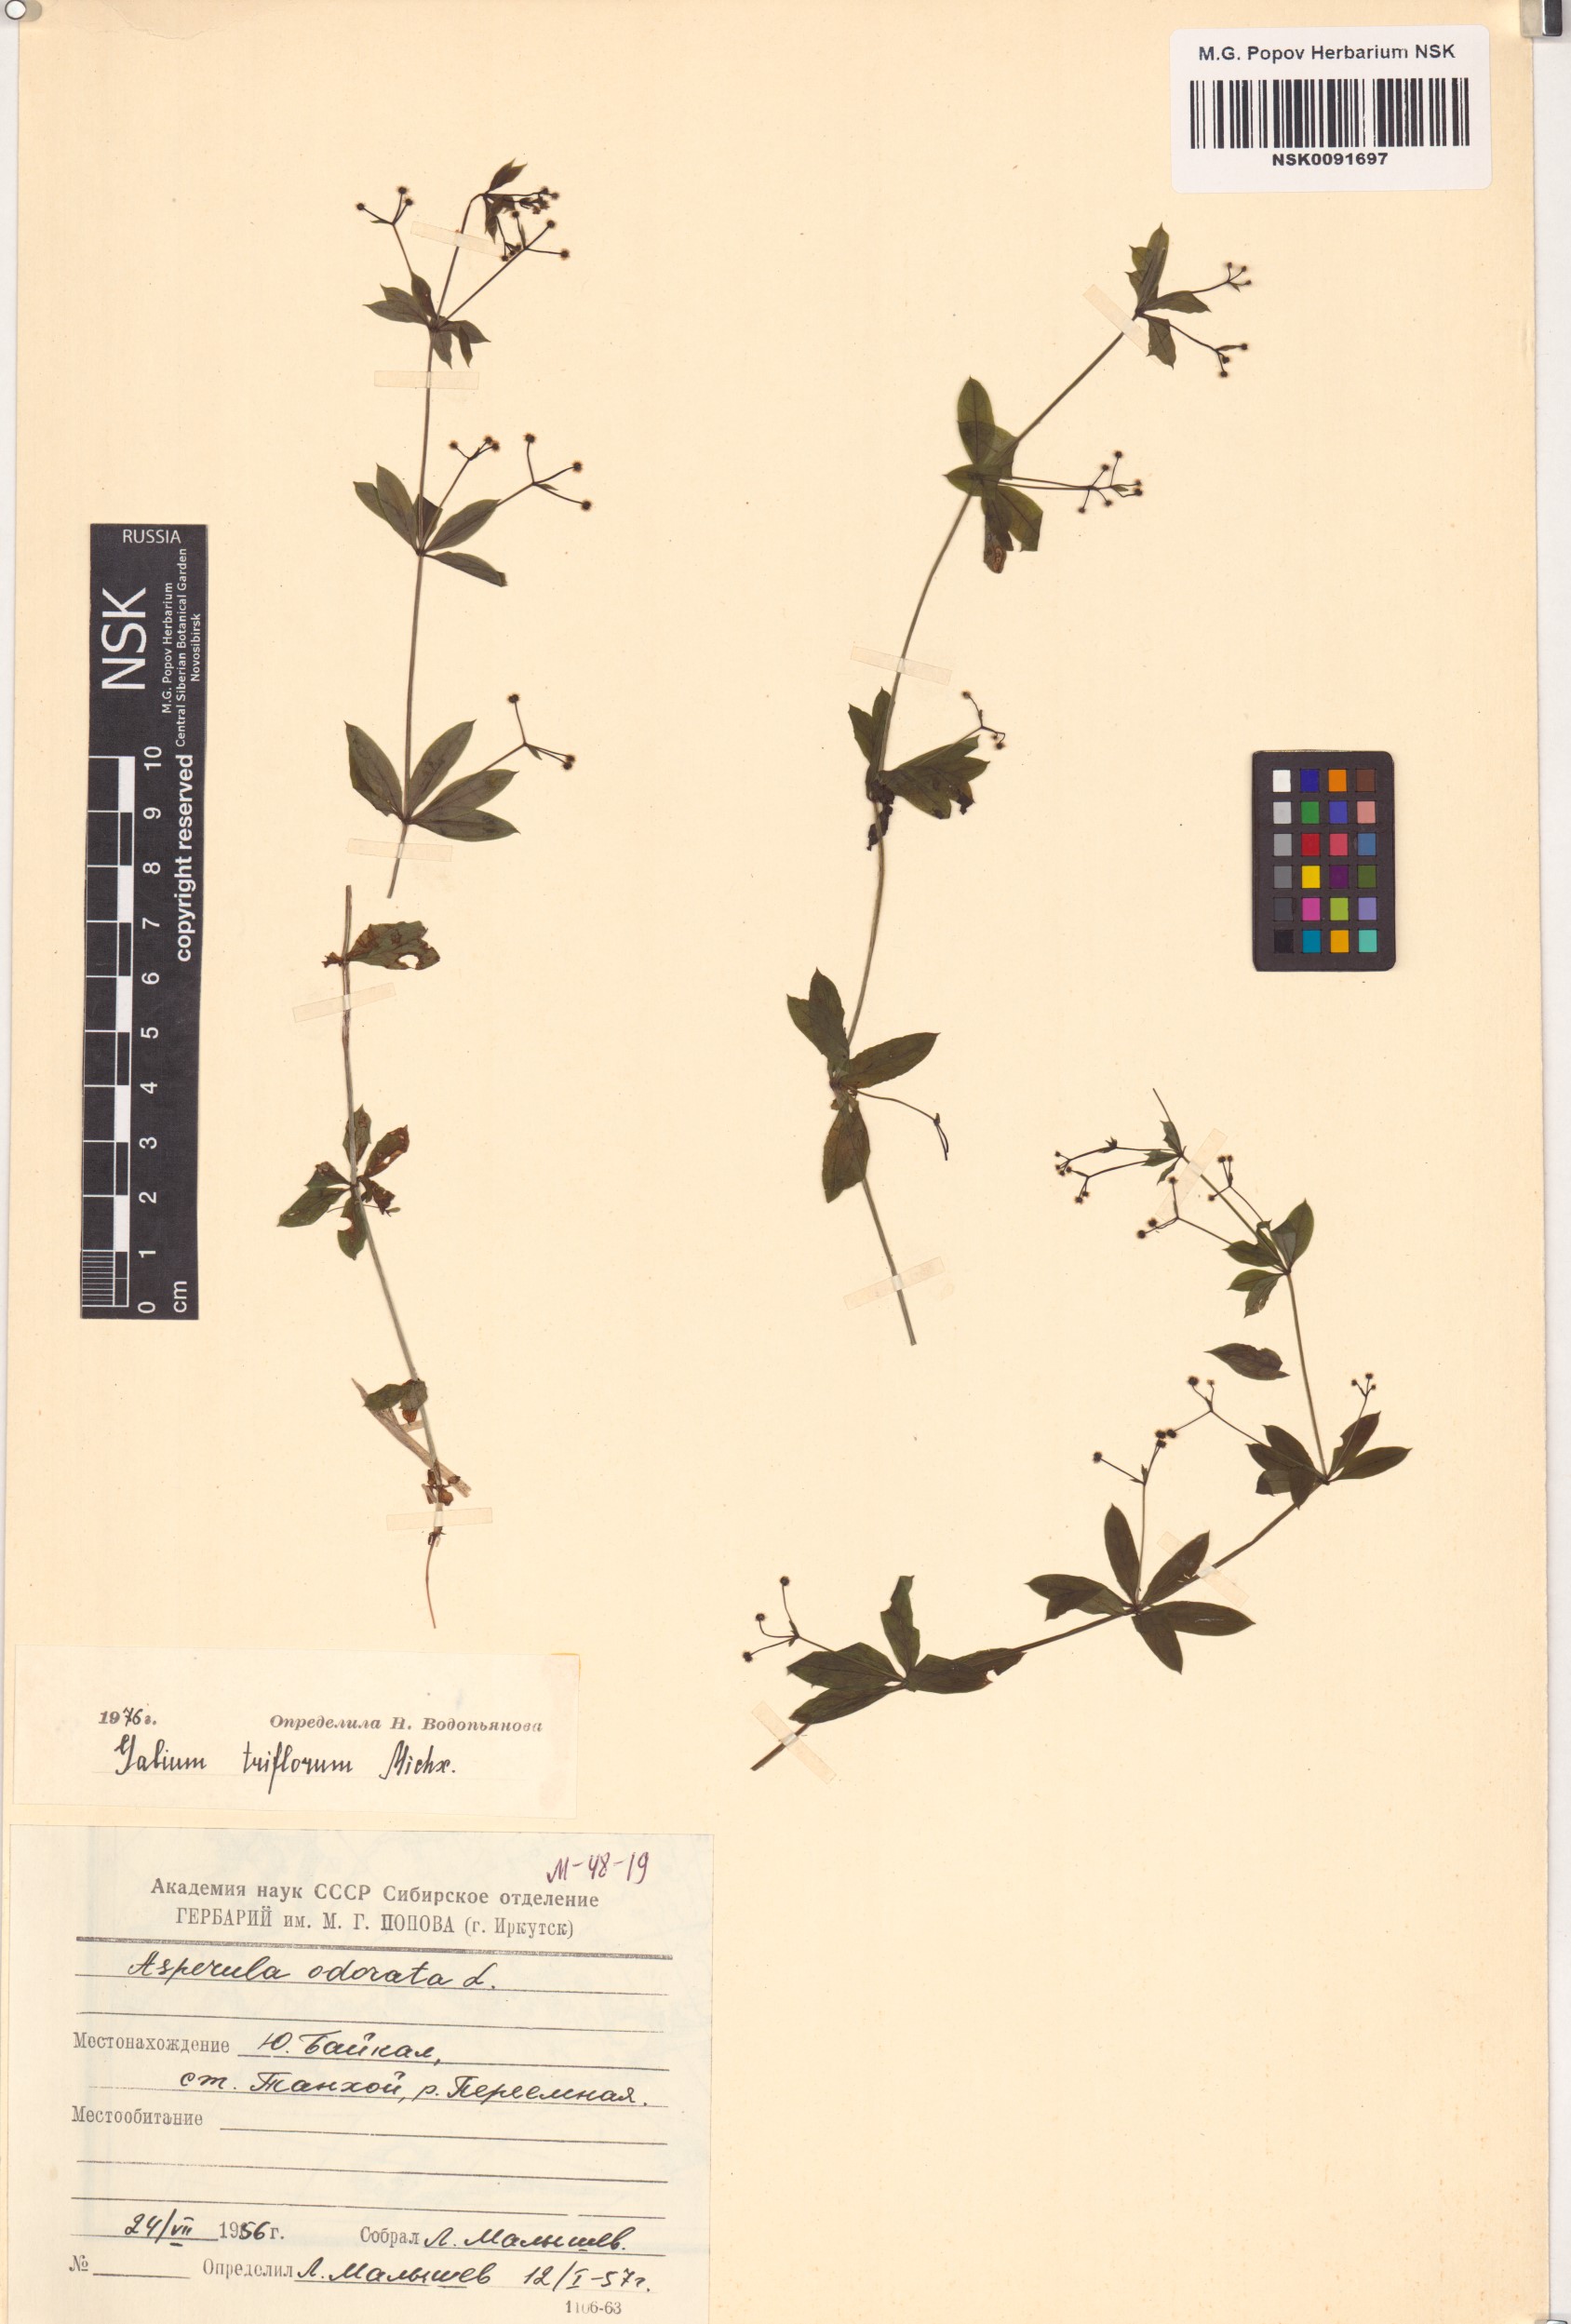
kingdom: Plantae
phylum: Tracheophyta
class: Magnoliopsida
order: Gentianales
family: Rubiaceae
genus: Galium
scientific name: Galium triflorum
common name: Fragrant bedstraw
